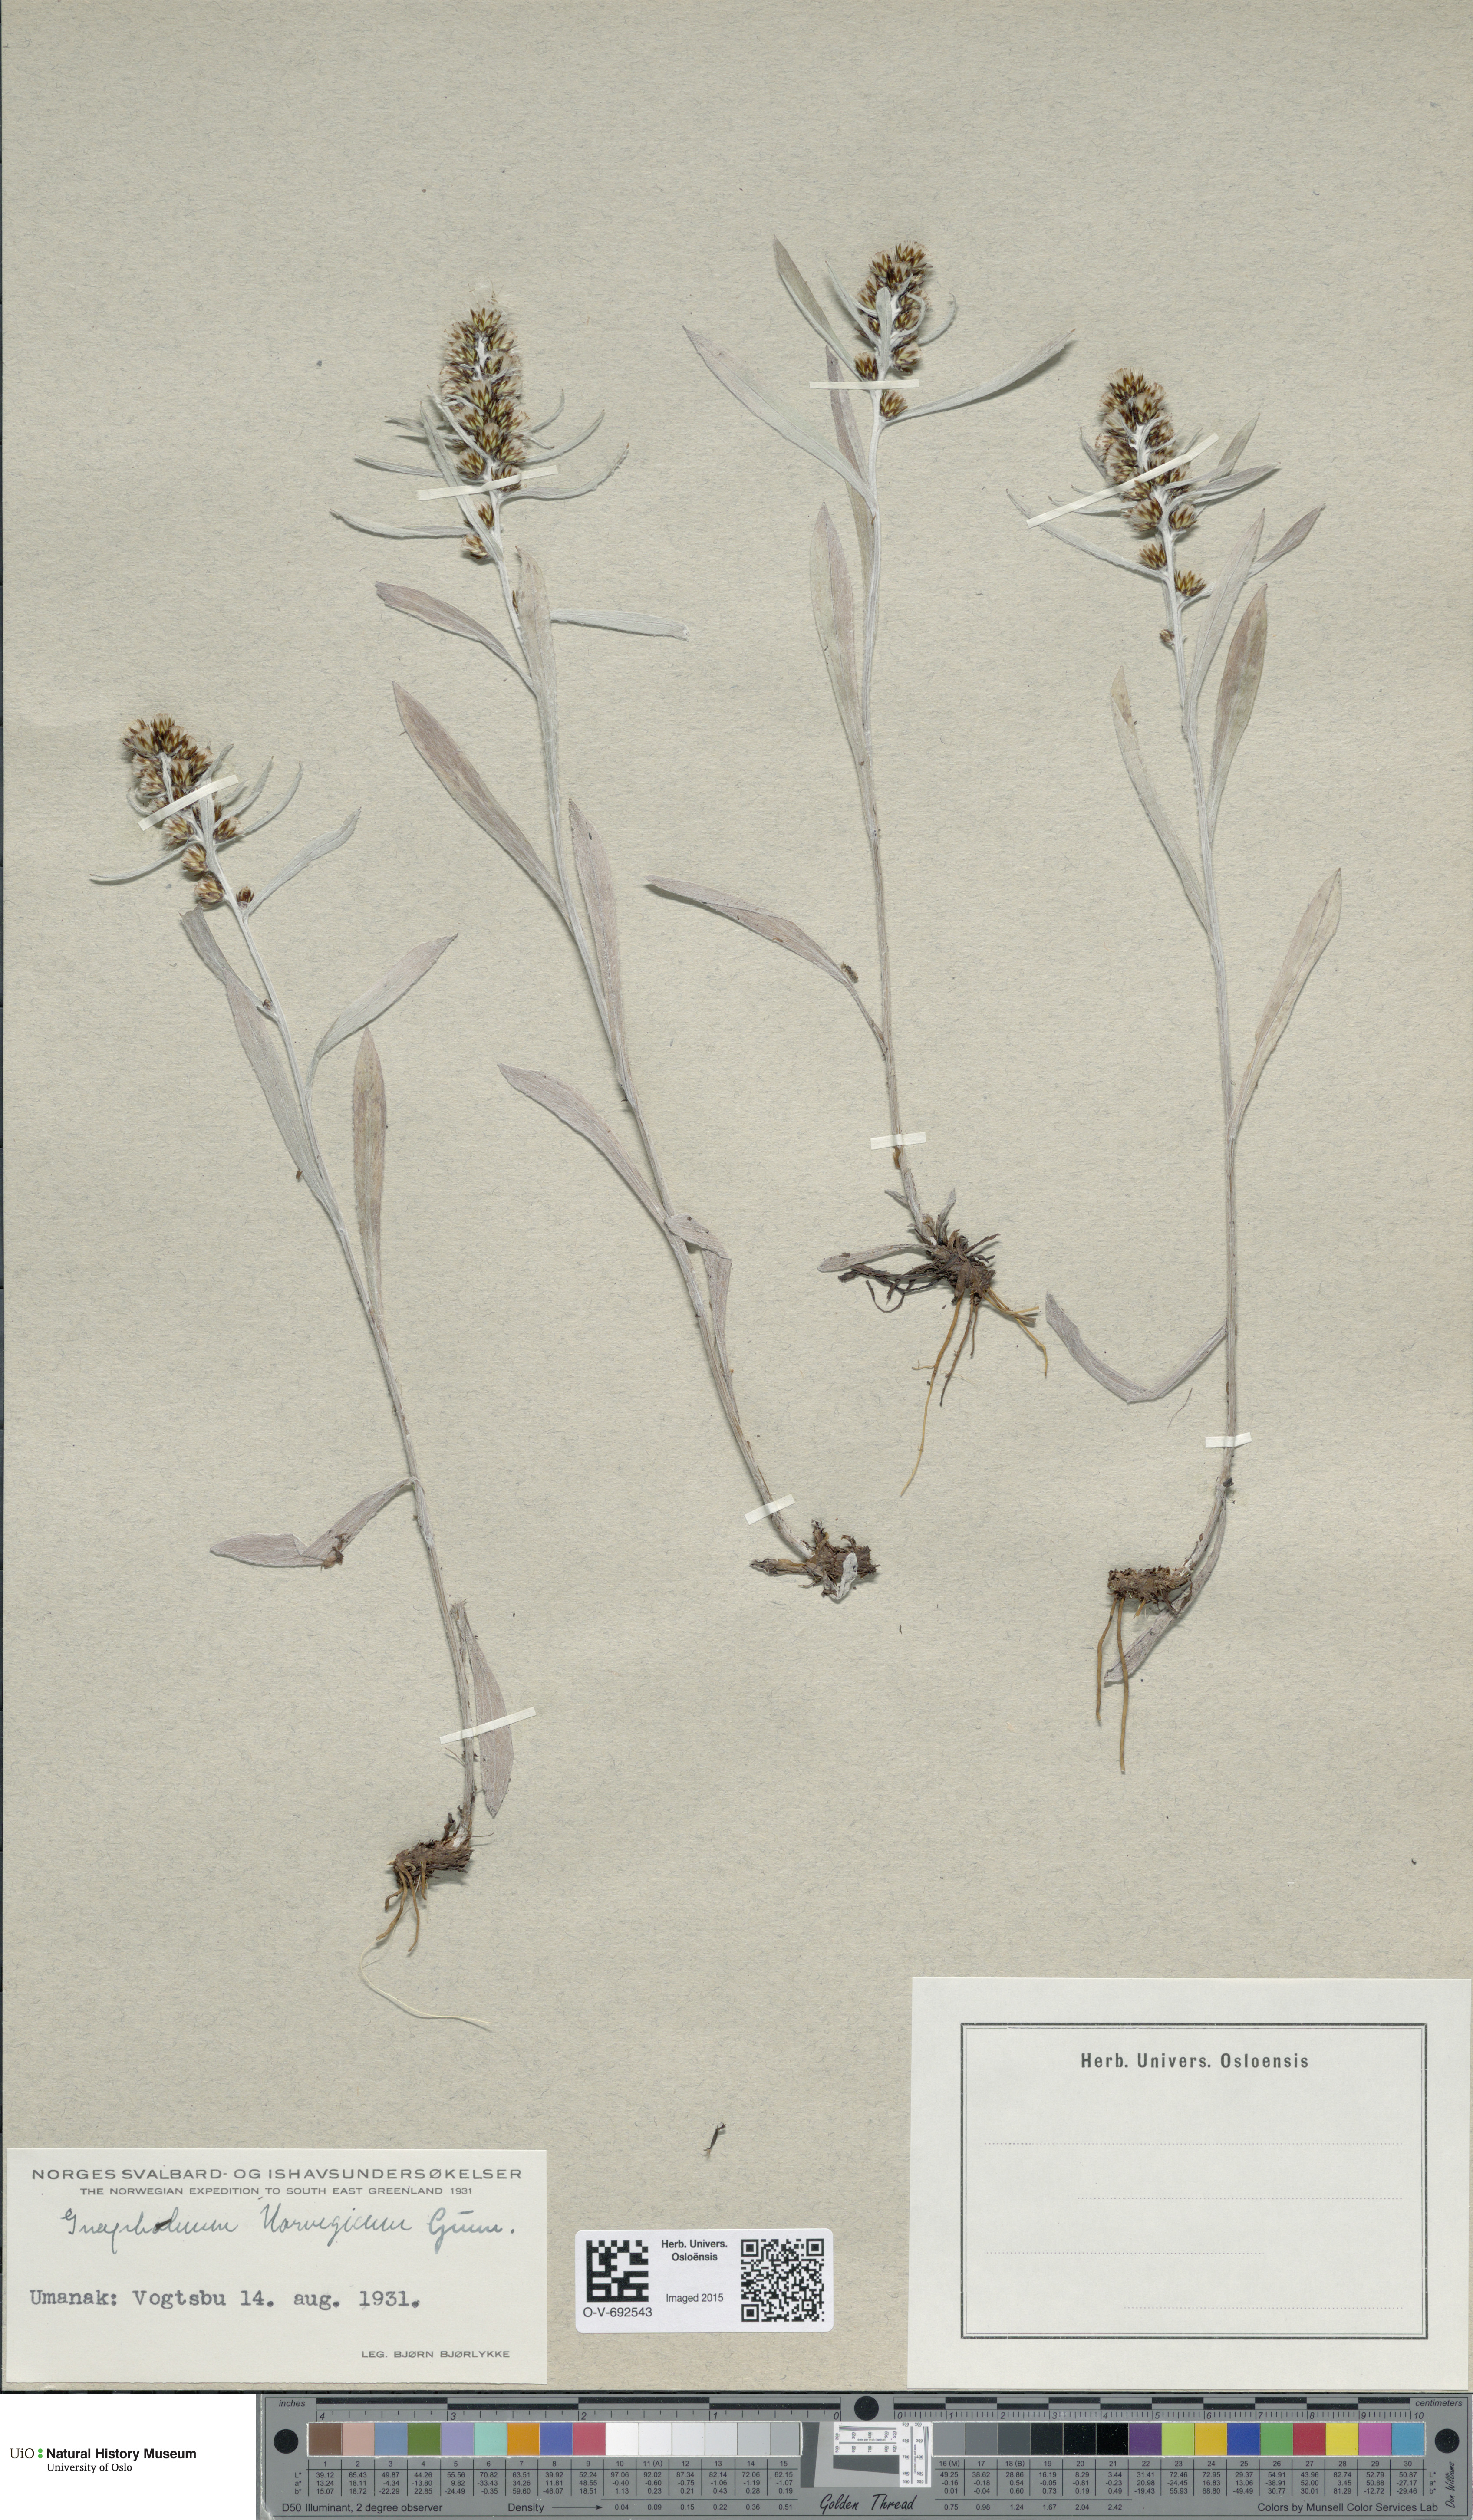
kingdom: Plantae
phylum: Tracheophyta
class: Magnoliopsida
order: Asterales
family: Asteraceae
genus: Omalotheca
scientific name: Omalotheca norvegica
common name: Norwegian arctic-cudweed
